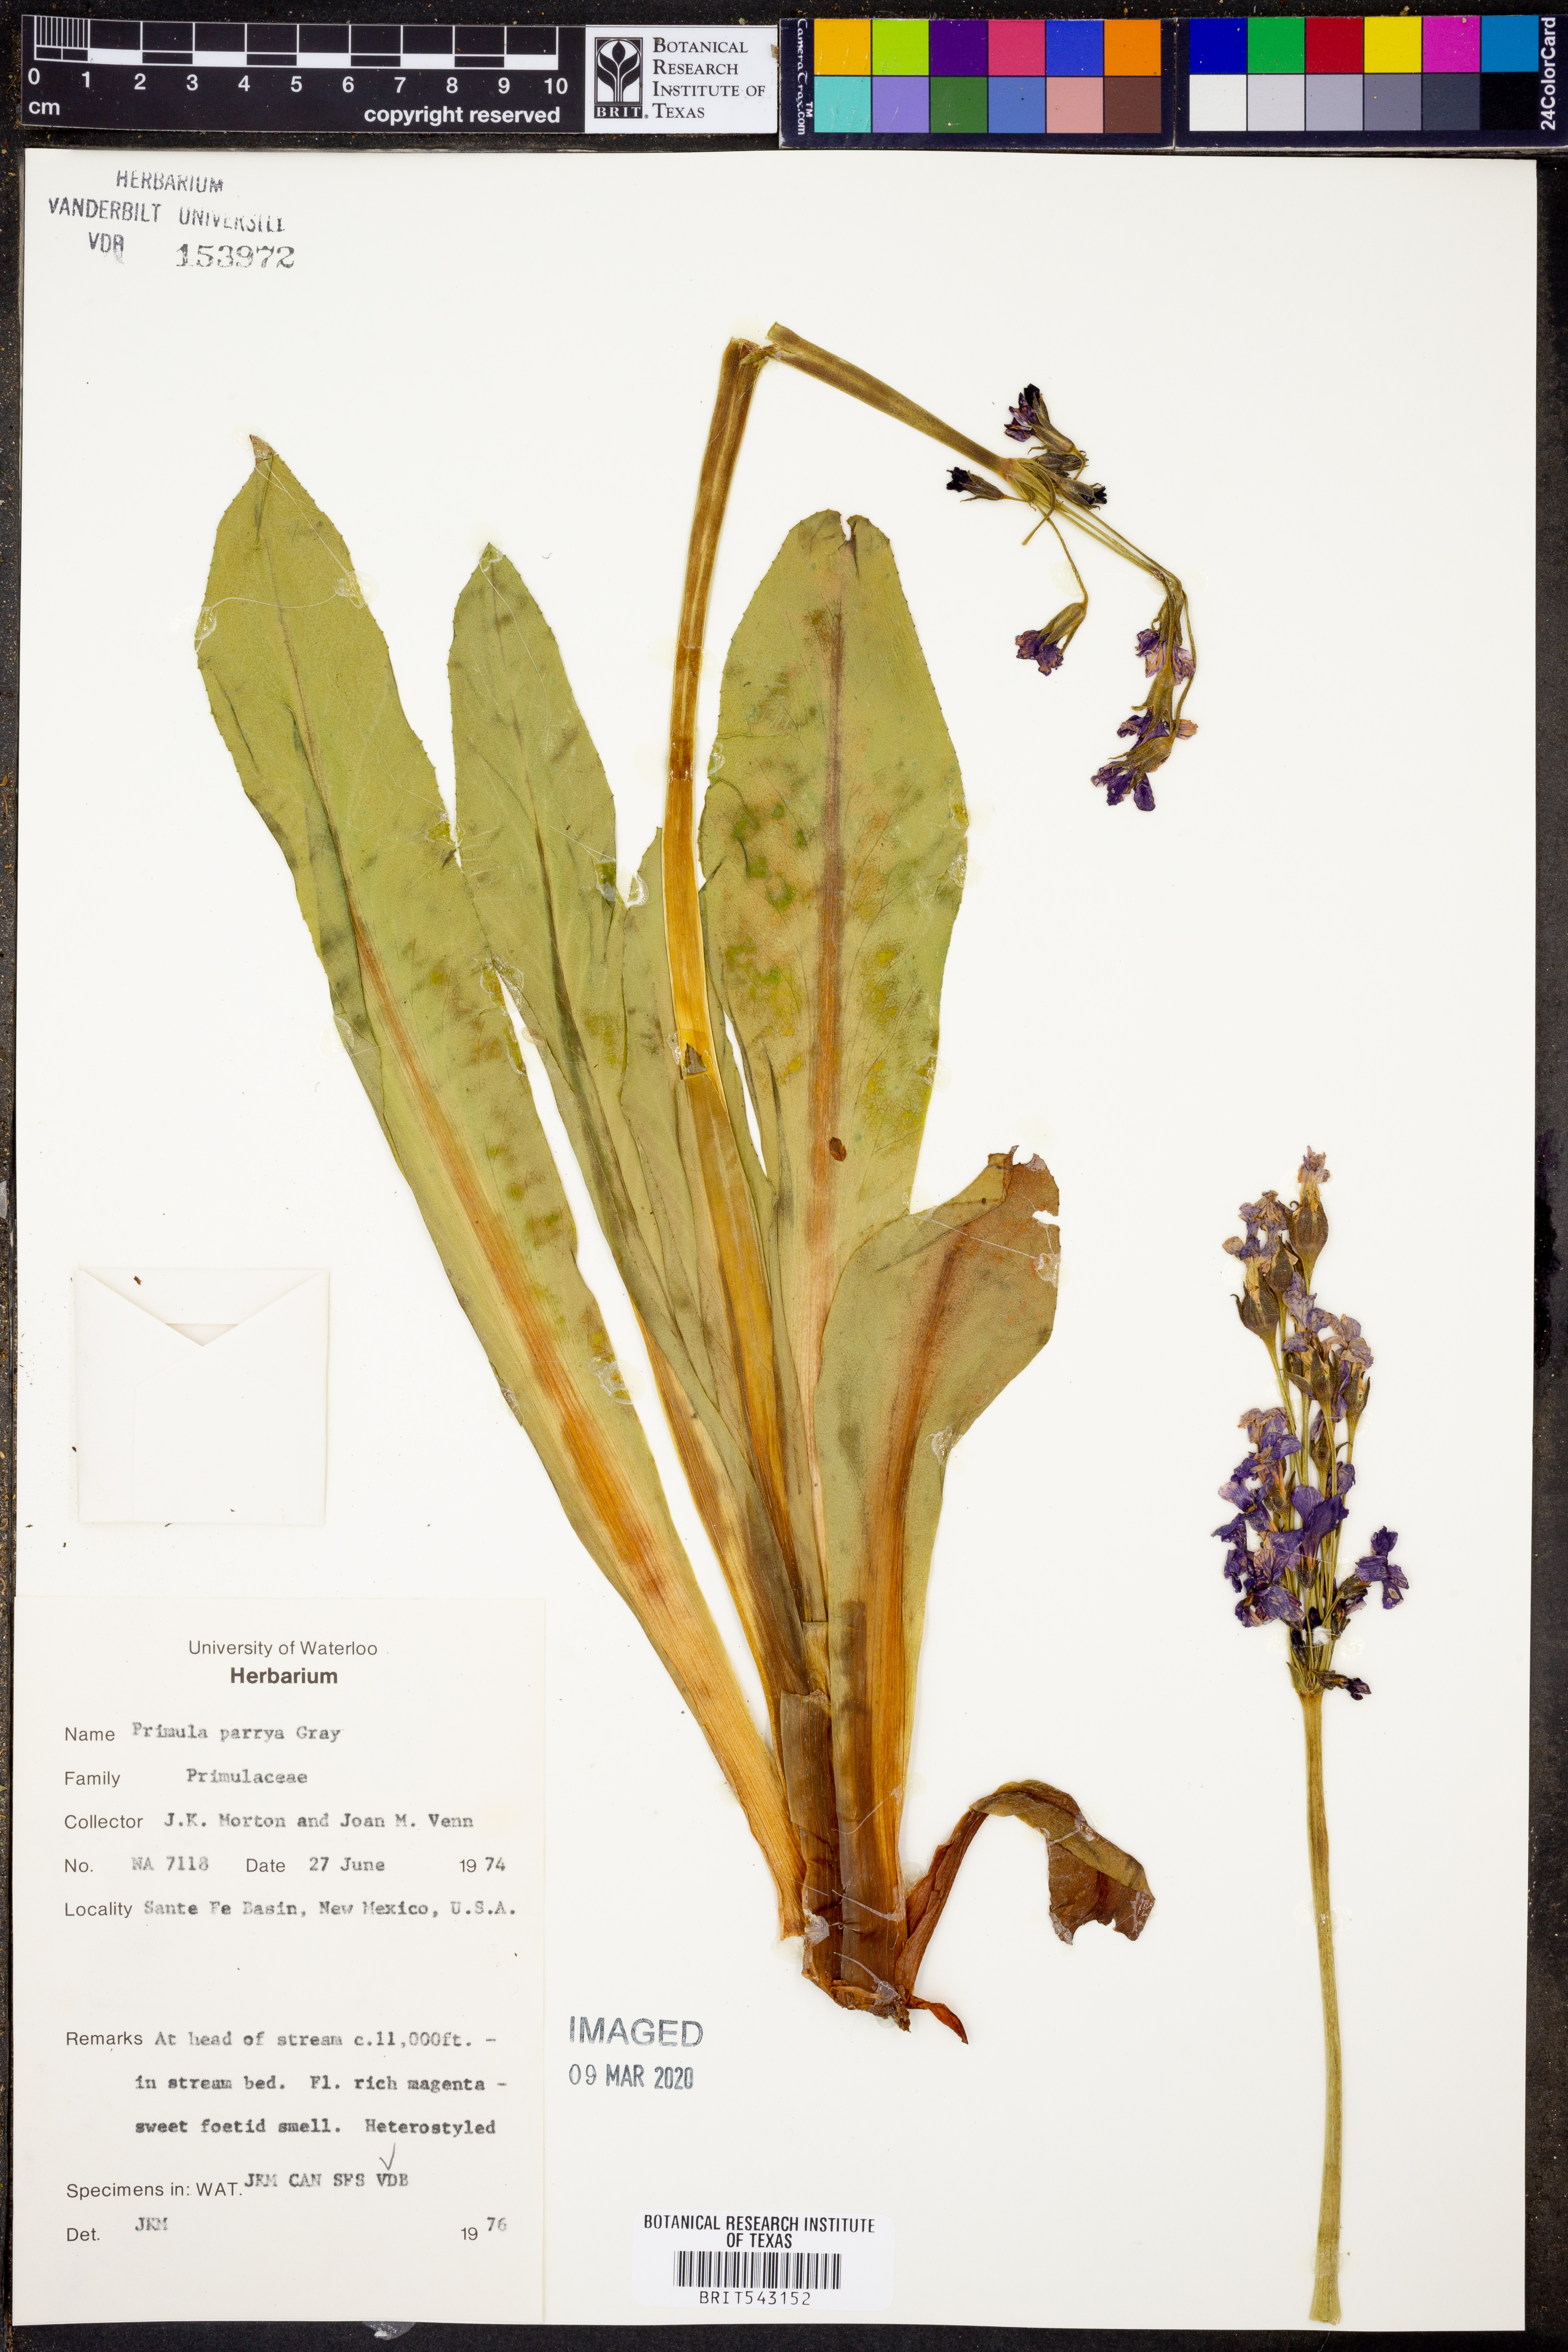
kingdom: Plantae
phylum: Tracheophyta
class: Magnoliopsida
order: Ericales
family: Primulaceae
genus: Primula
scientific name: Primula parryi
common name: Parry's primrose
